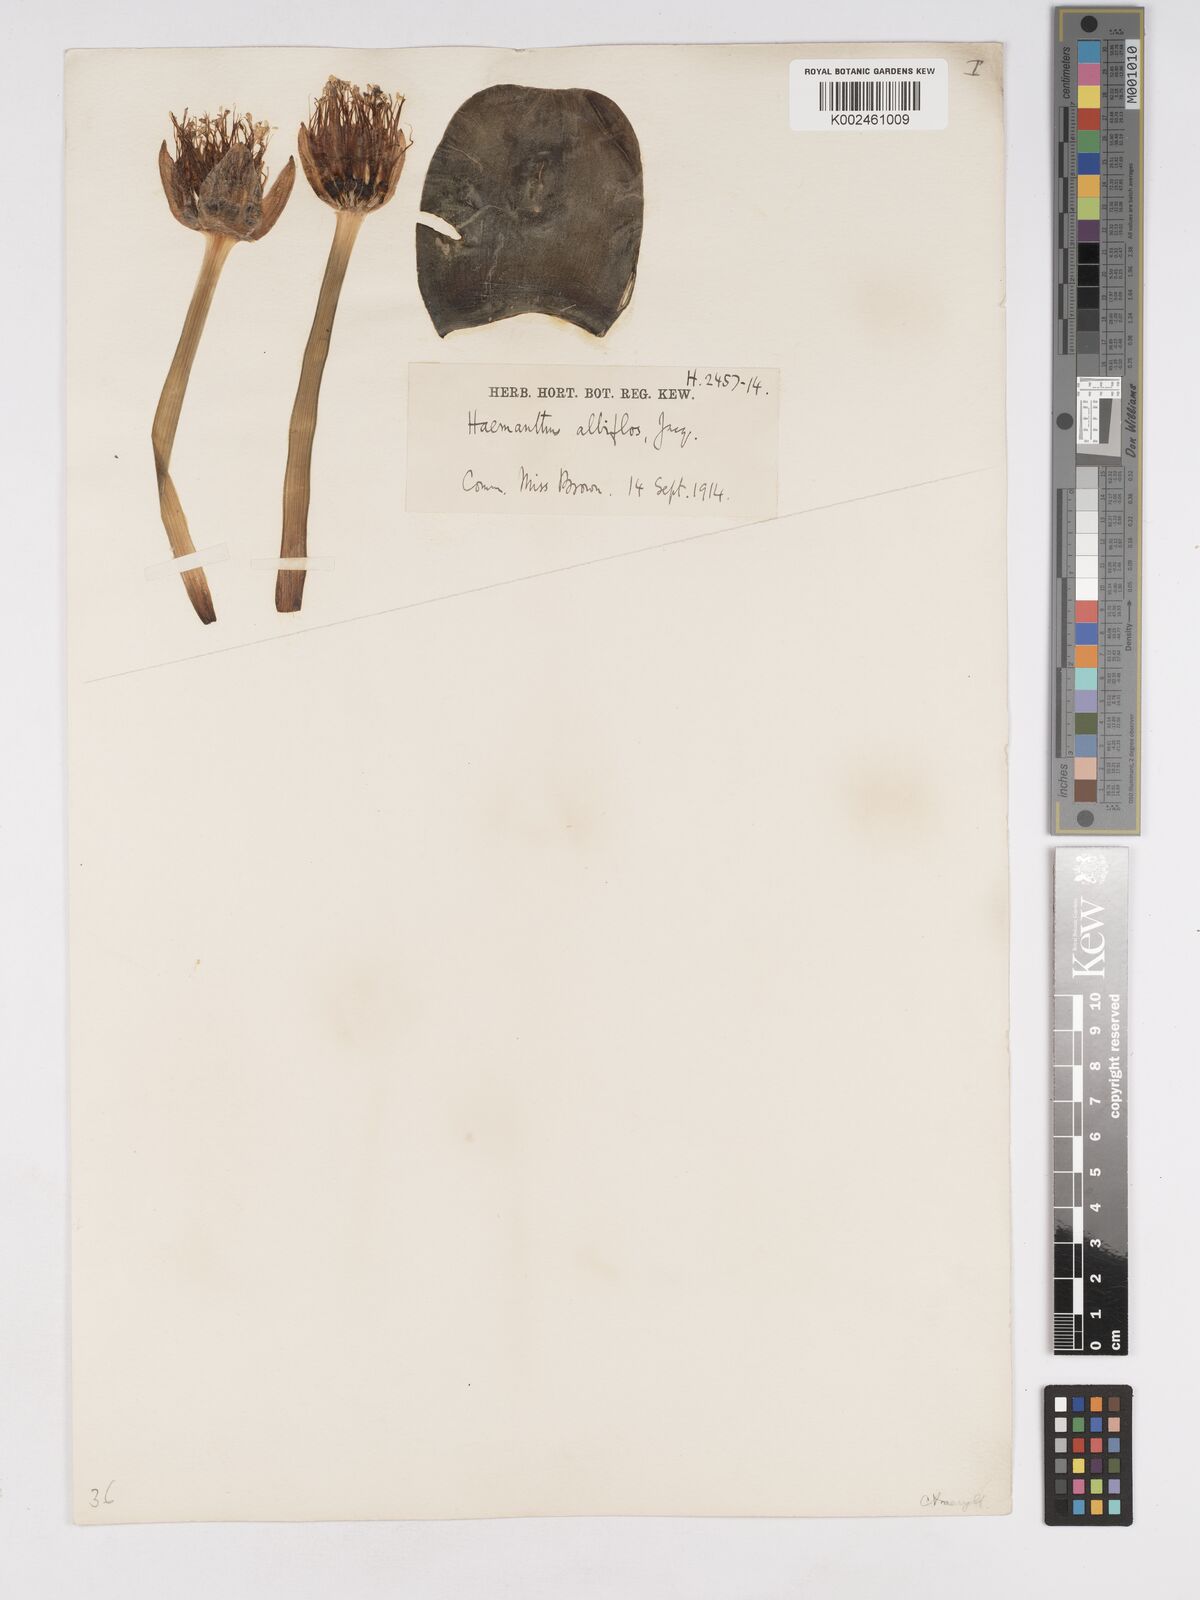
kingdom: Plantae
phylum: Tracheophyta
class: Liliopsida
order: Asparagales
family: Amaryllidaceae
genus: Haemanthus
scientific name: Haemanthus albiflos
